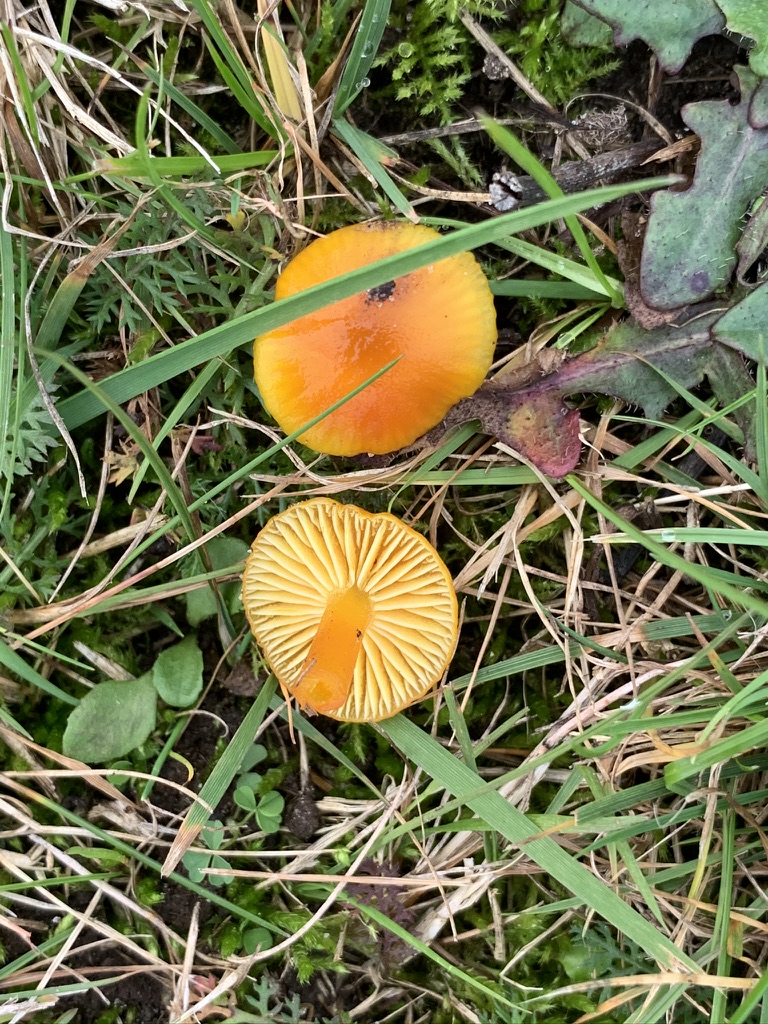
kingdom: Fungi
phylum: Basidiomycota
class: Agaricomycetes
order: Agaricales
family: Hygrophoraceae
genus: Hygrocybe
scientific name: Hygrocybe ceracea
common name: voksgul vokshat
